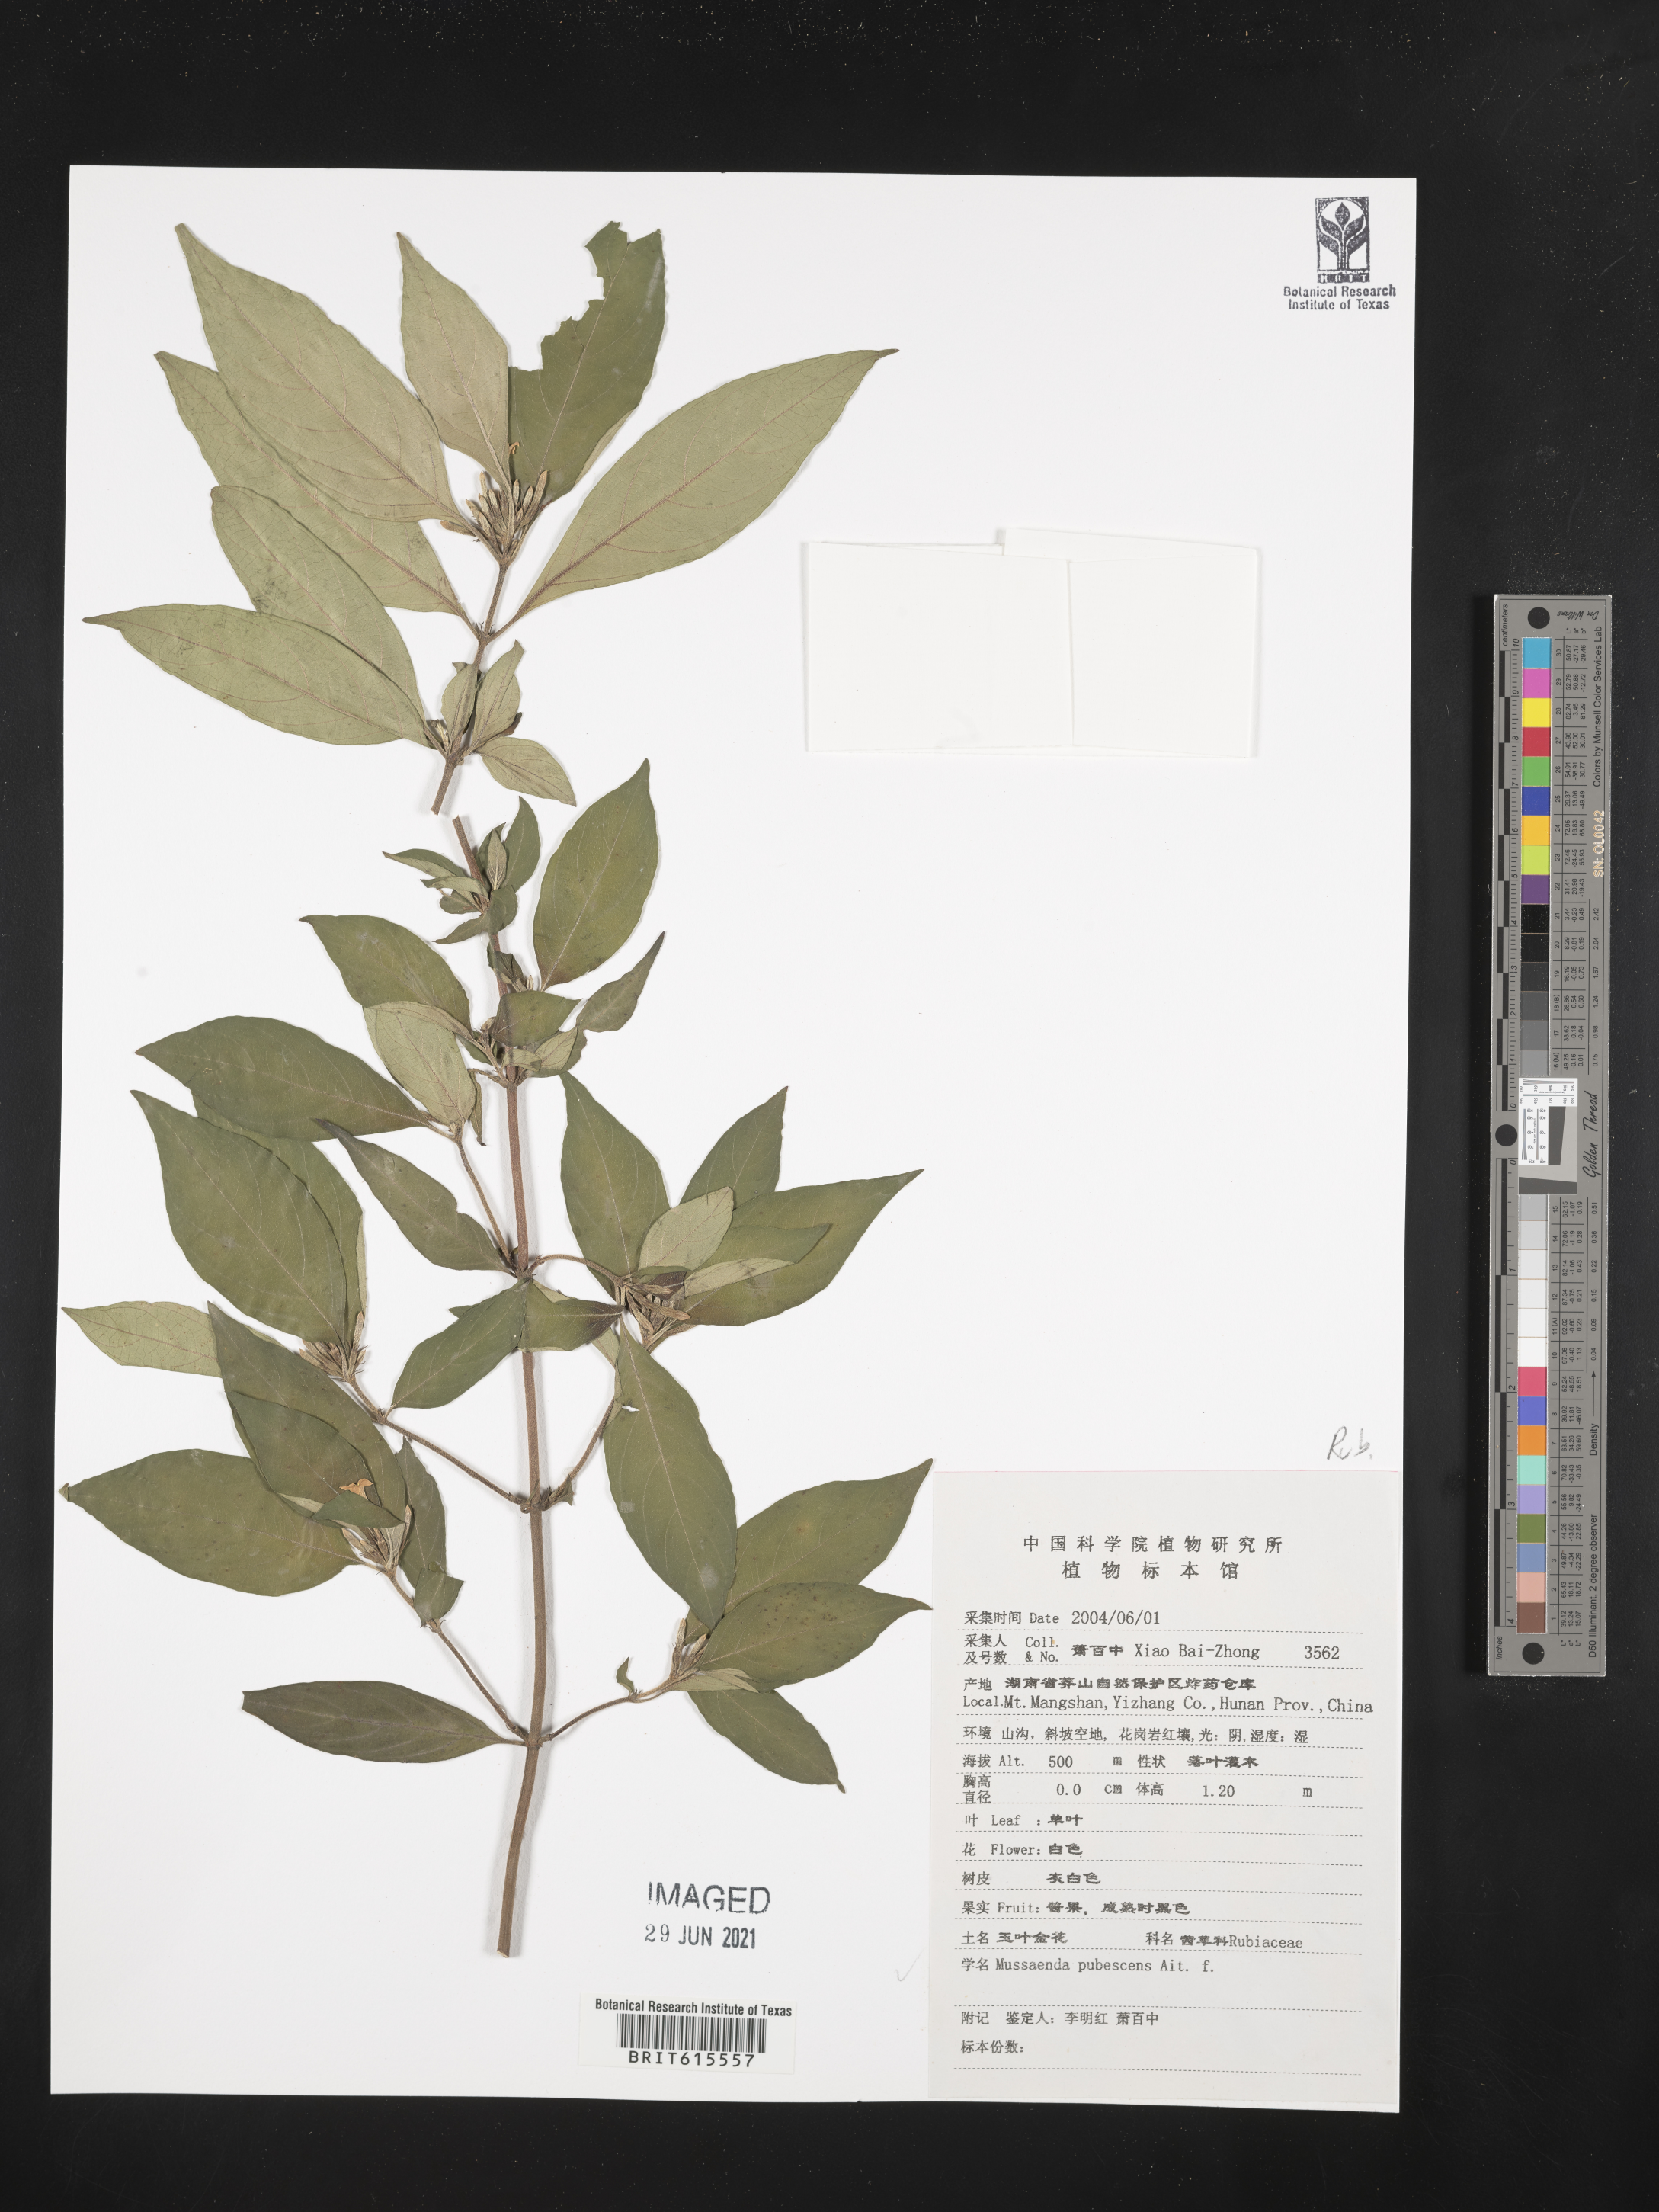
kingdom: Plantae
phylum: Tracheophyta
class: Magnoliopsida
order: Gentianales
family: Rubiaceae
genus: Mussaenda
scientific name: Mussaenda pubescens
